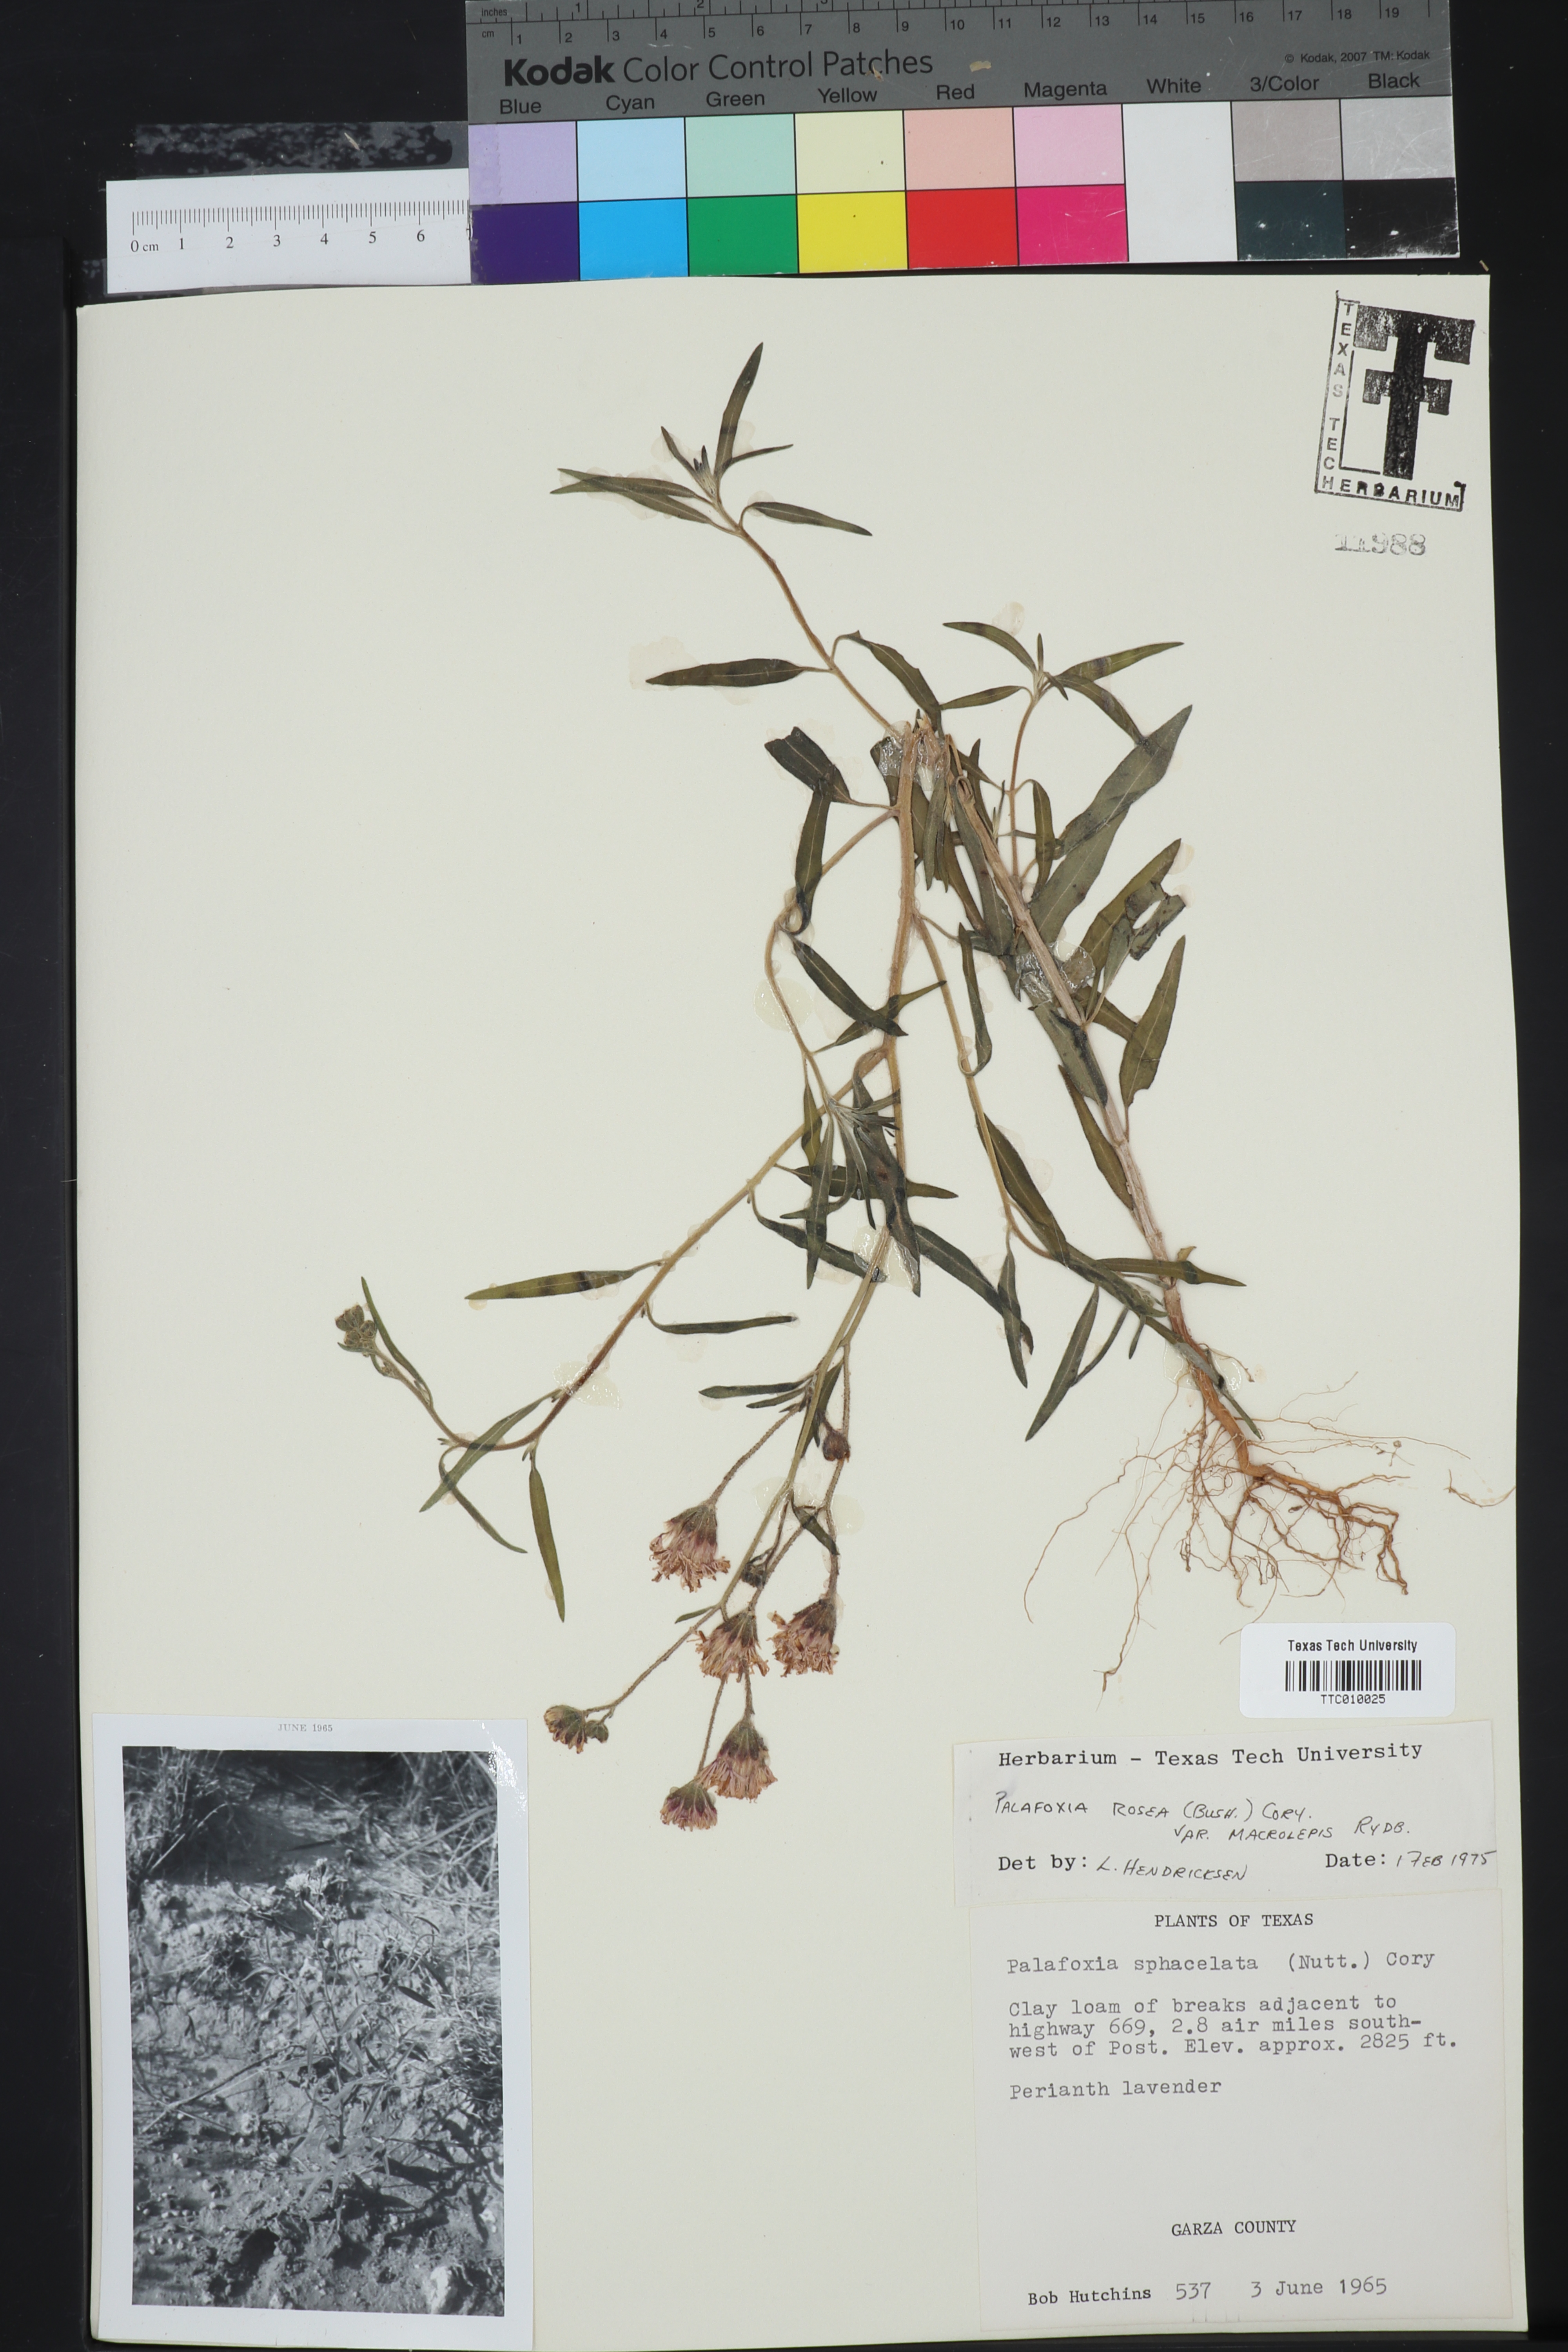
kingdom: Plantae
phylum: Tracheophyta
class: Magnoliopsida
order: Asterales
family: Asteraceae
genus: Palafoxia
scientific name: Palafoxia rosea
